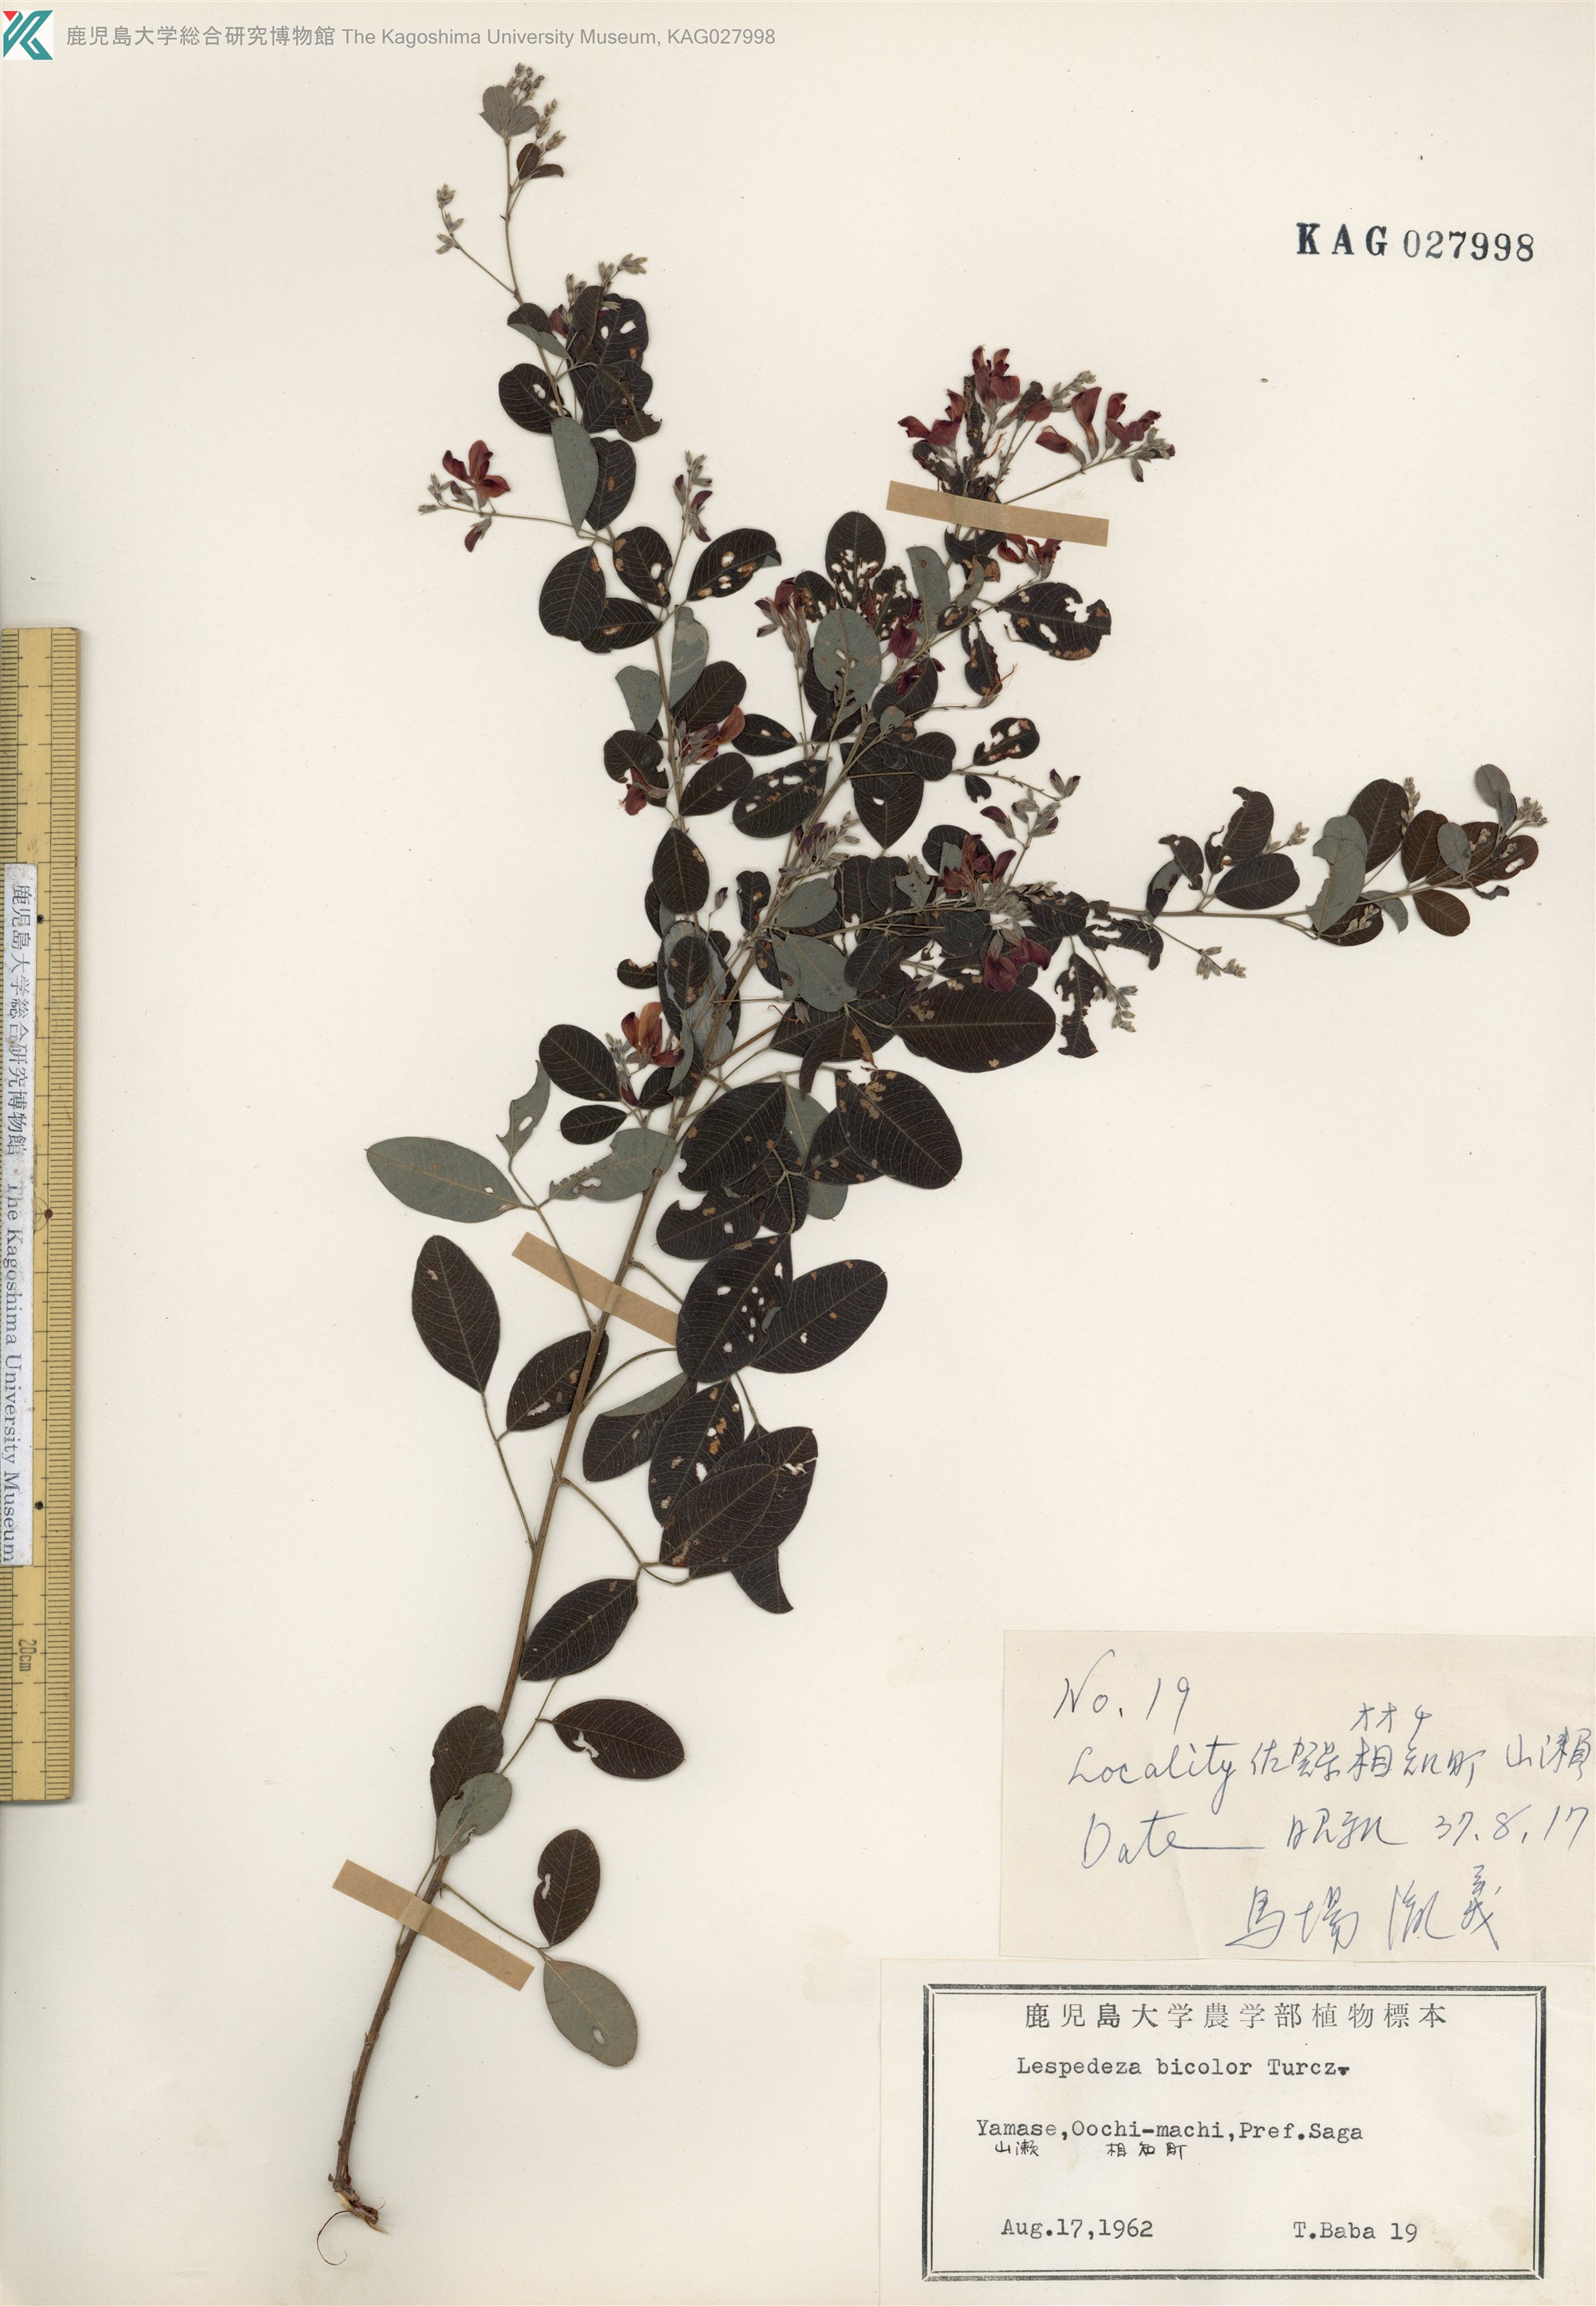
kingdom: Plantae
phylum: Tracheophyta
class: Magnoliopsida
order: Fabales
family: Fabaceae
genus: Lespedeza
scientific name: Lespedeza bicolor
